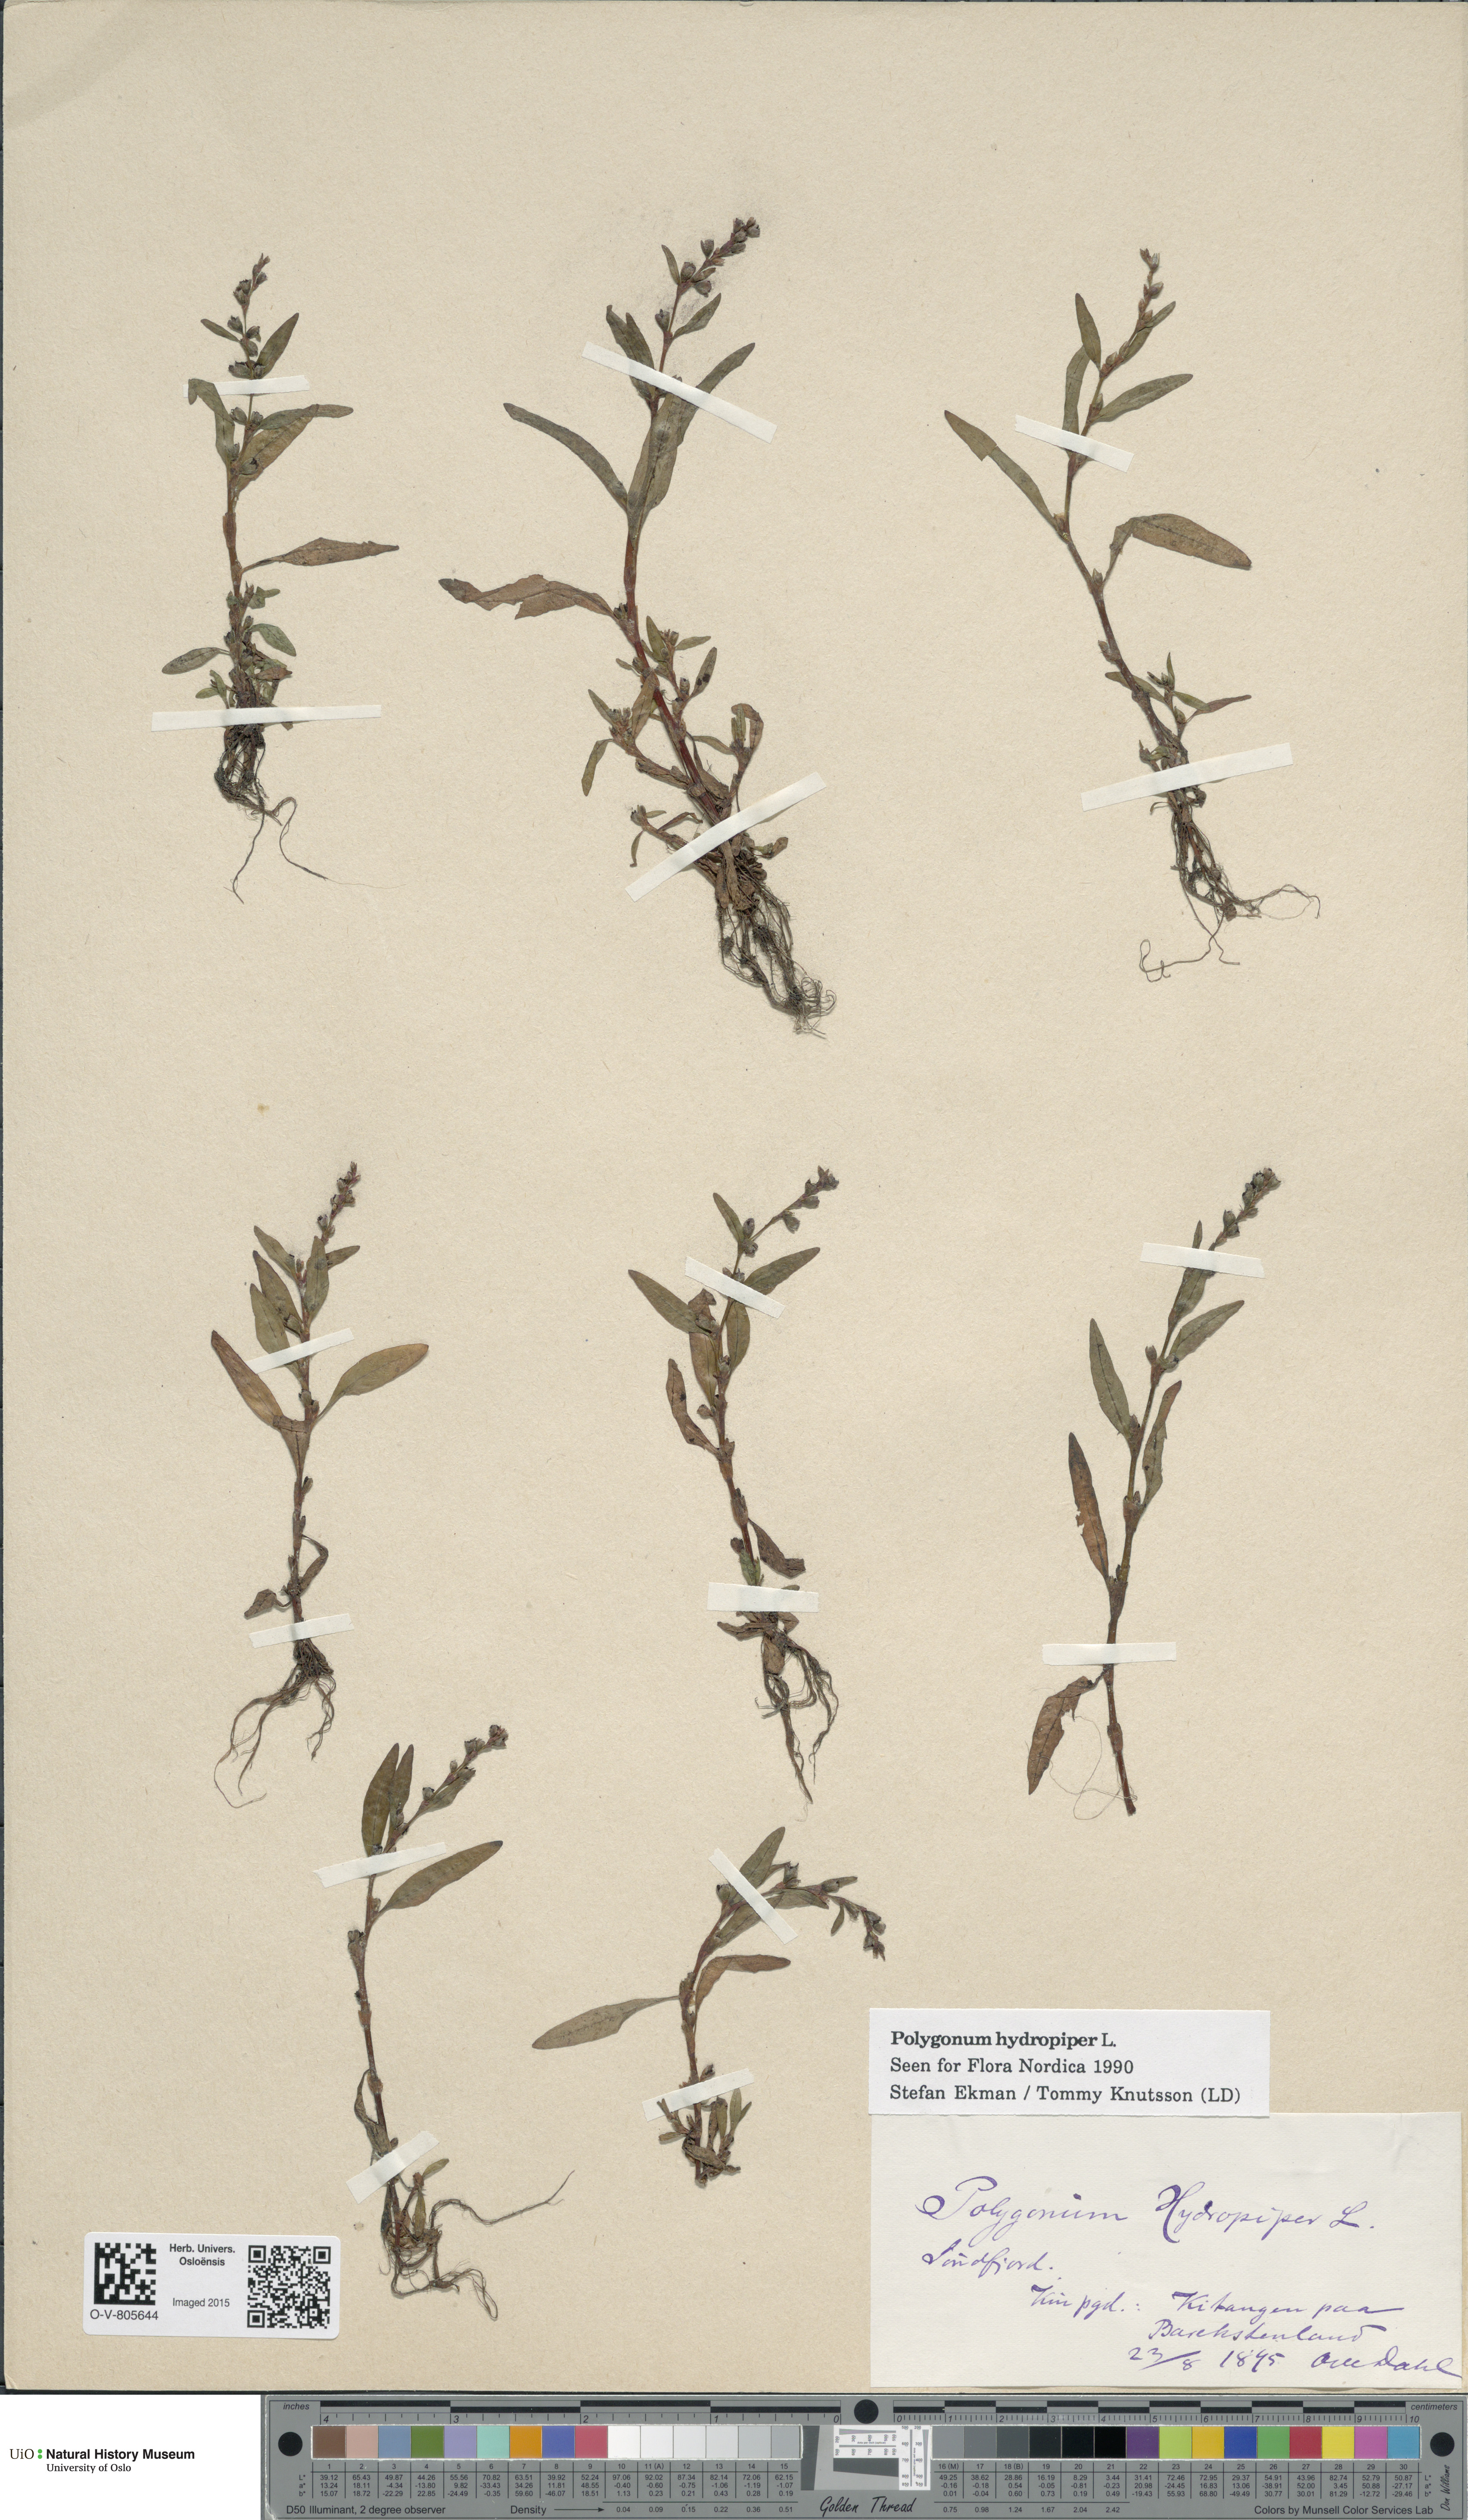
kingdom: Plantae
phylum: Tracheophyta
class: Magnoliopsida
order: Caryophyllales
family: Polygonaceae
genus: Persicaria
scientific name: Persicaria hydropiper
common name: Water-pepper
